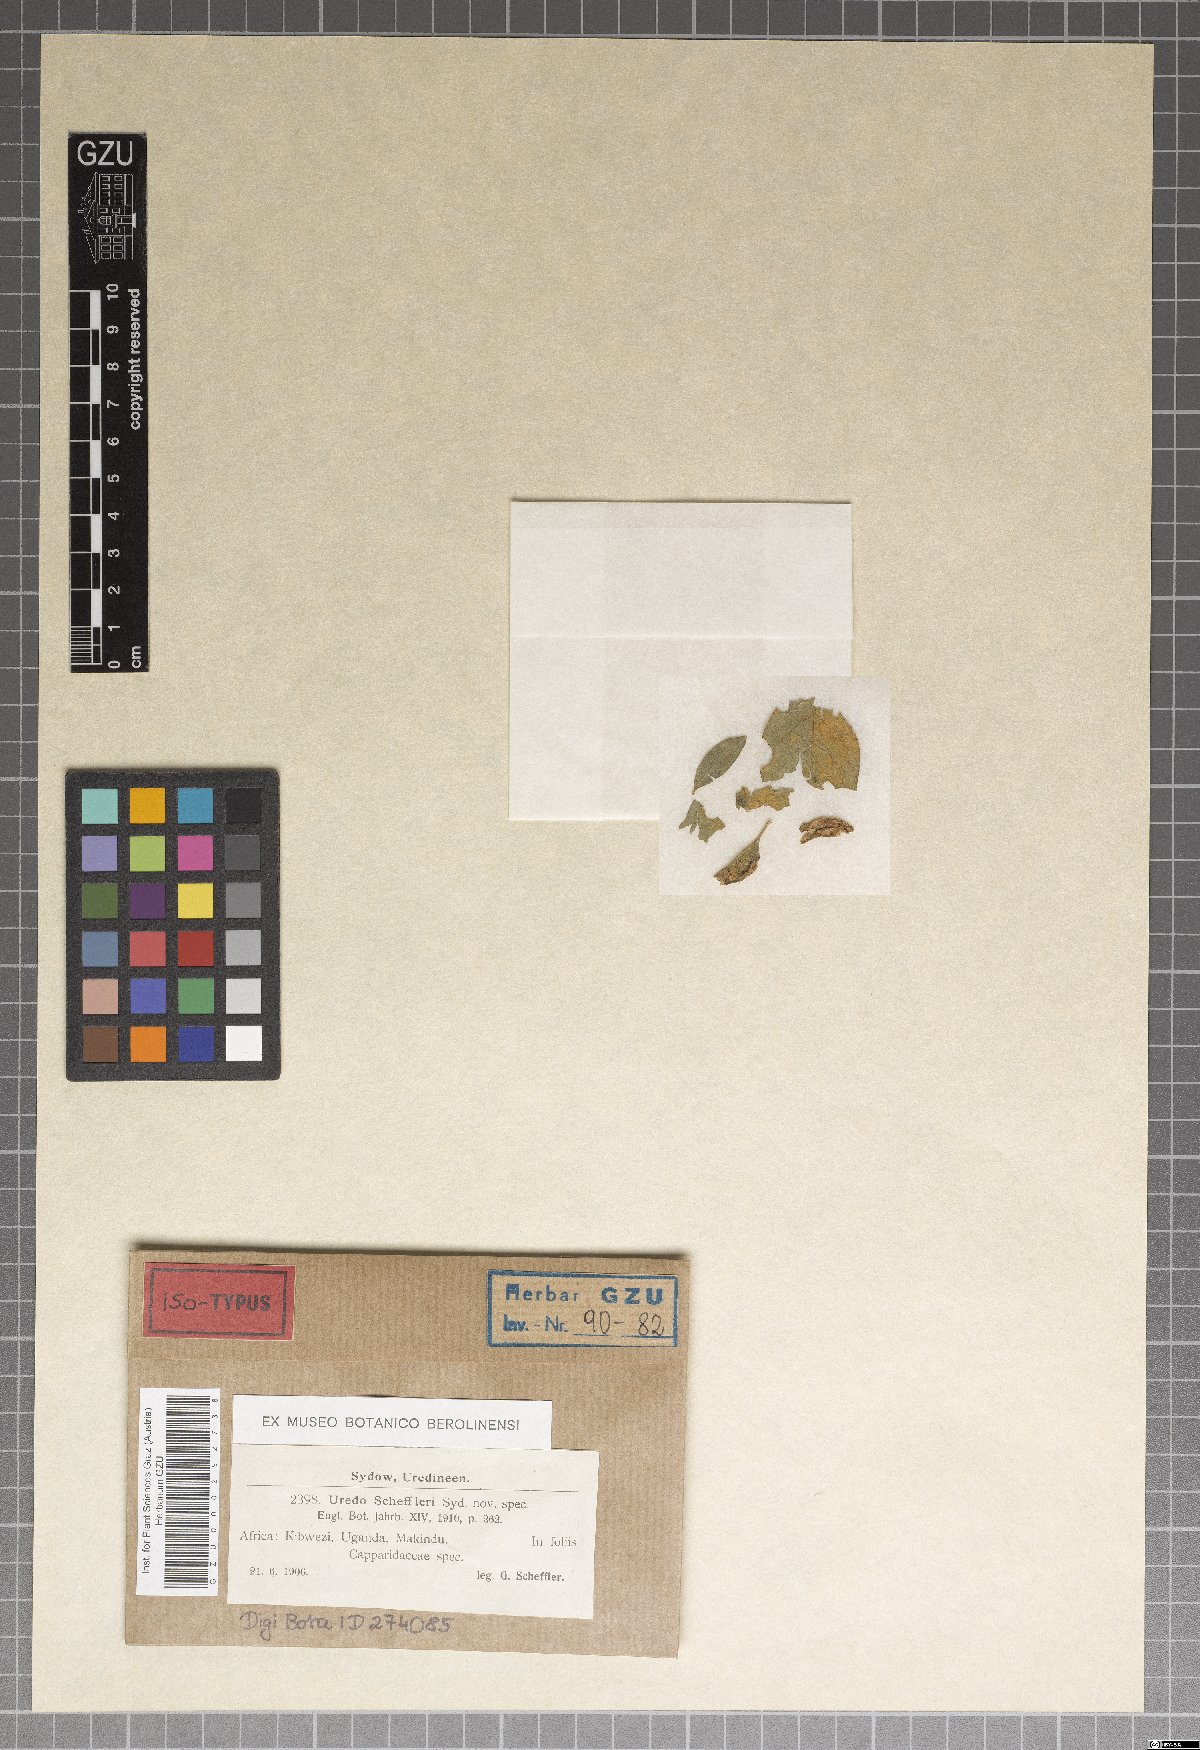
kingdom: Fungi
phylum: Basidiomycota
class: Pucciniomycetes
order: Pucciniales
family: Zaghouaniaceae
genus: Hemileia
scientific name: Hemileia scheffleri
